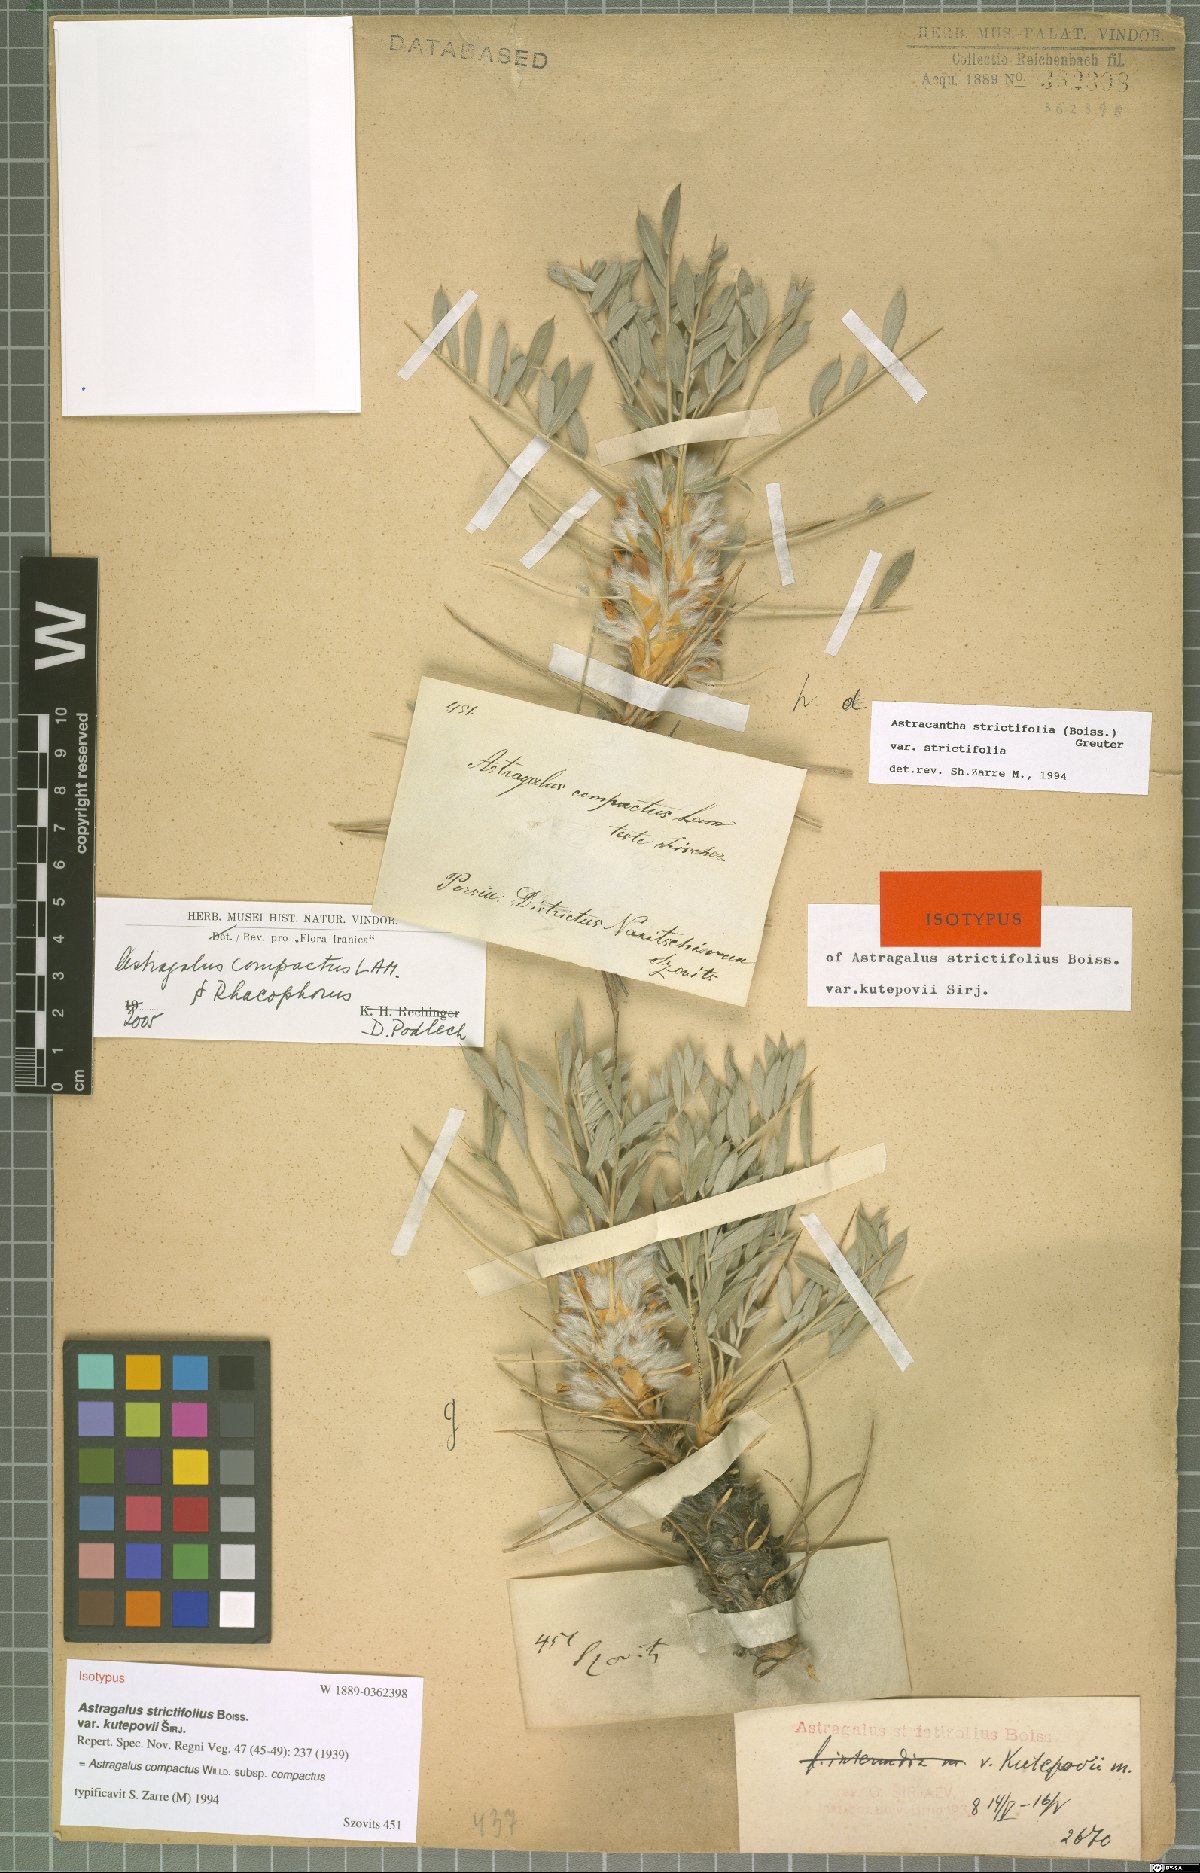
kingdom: Plantae
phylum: Tracheophyta
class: Magnoliopsida
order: Fabales
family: Fabaceae
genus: Astragalus
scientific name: Astragalus compactus
